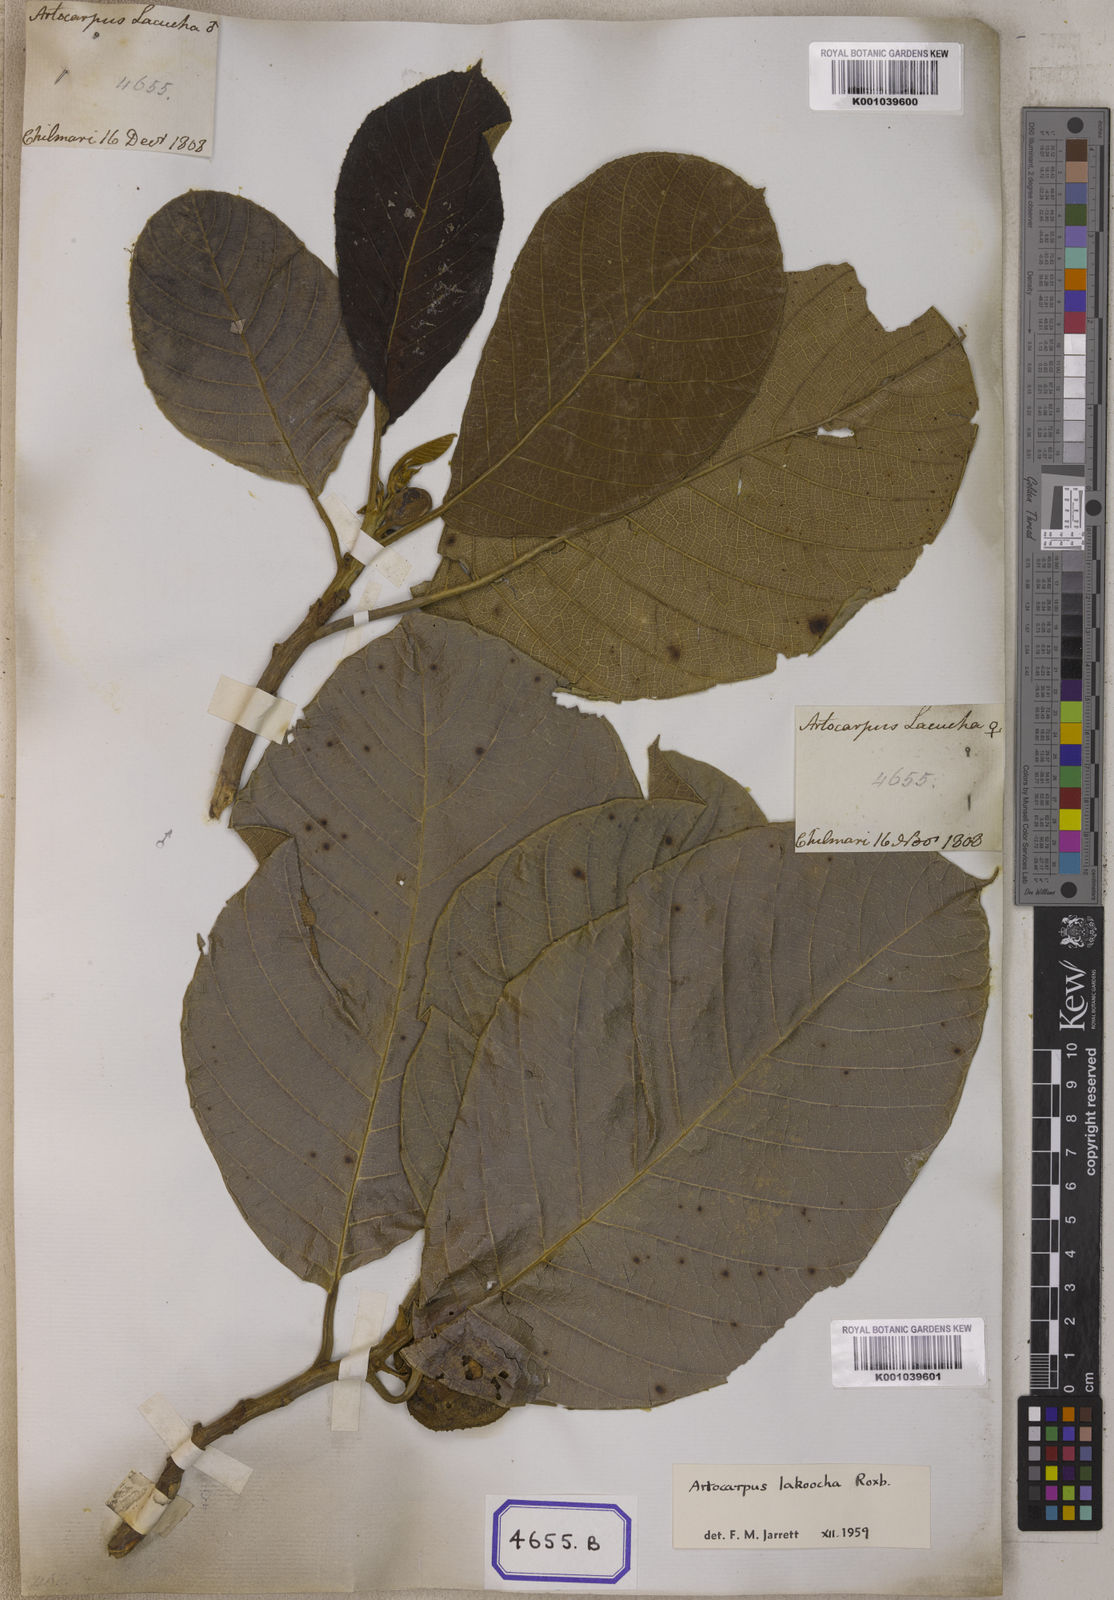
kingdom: Plantae
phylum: Tracheophyta
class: Magnoliopsida
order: Rosales
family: Moraceae
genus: Artocarpus
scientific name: Artocarpus lacucha
